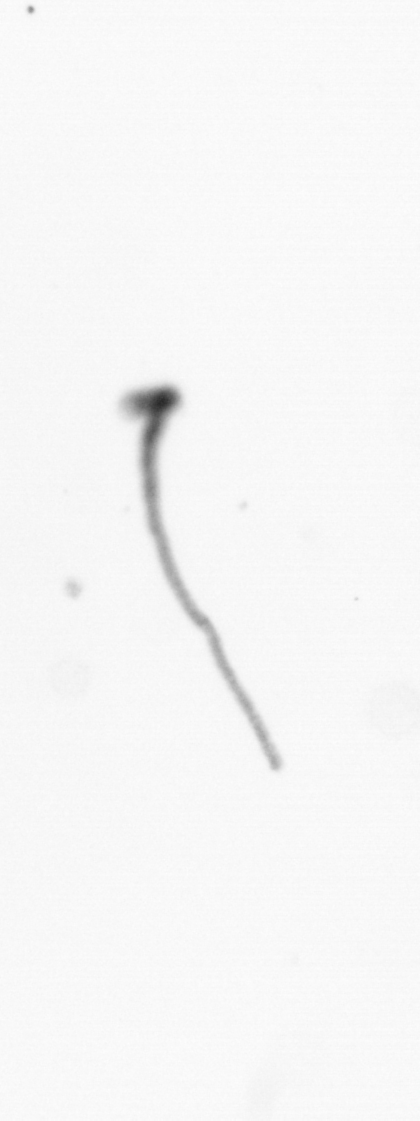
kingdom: Chromista
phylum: Ochrophyta
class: Bacillariophyceae
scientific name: Bacillariophyceae
